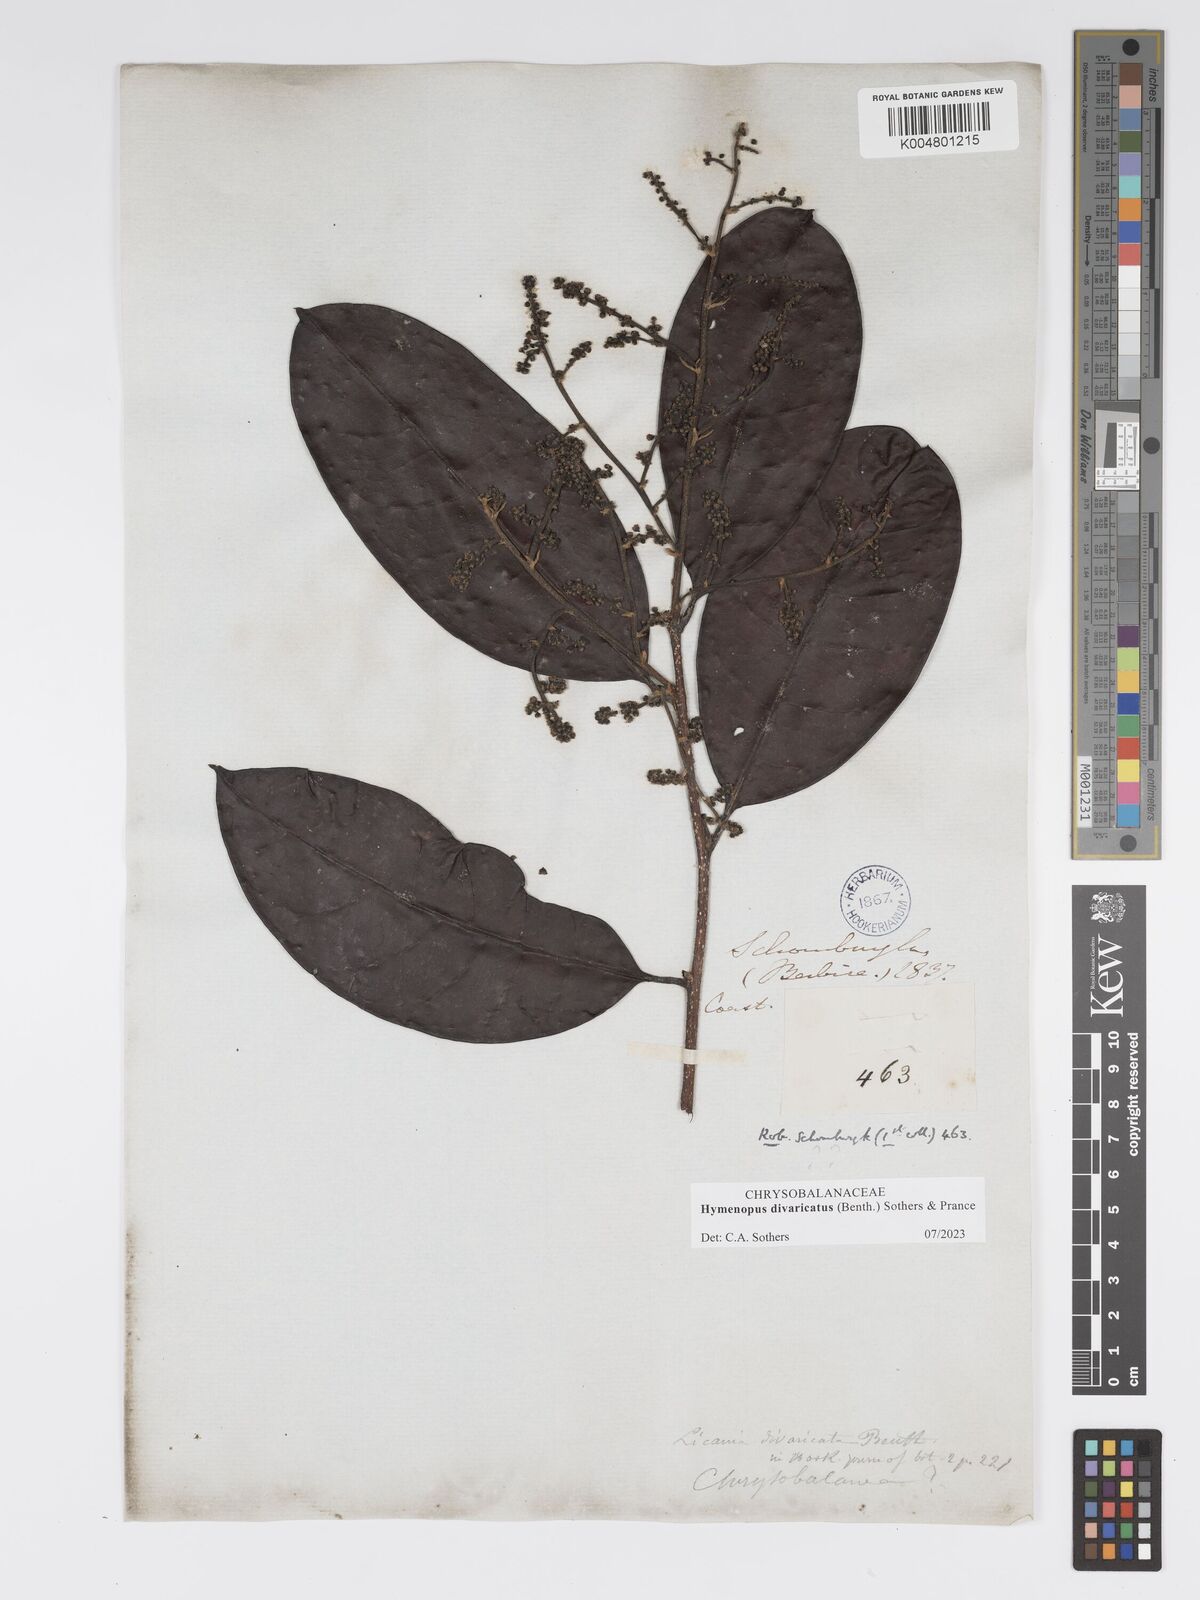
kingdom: Plantae
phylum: Tracheophyta
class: Magnoliopsida
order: Malpighiales
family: Chrysobalanaceae
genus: Hymenopus
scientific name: Hymenopus divaricatus
